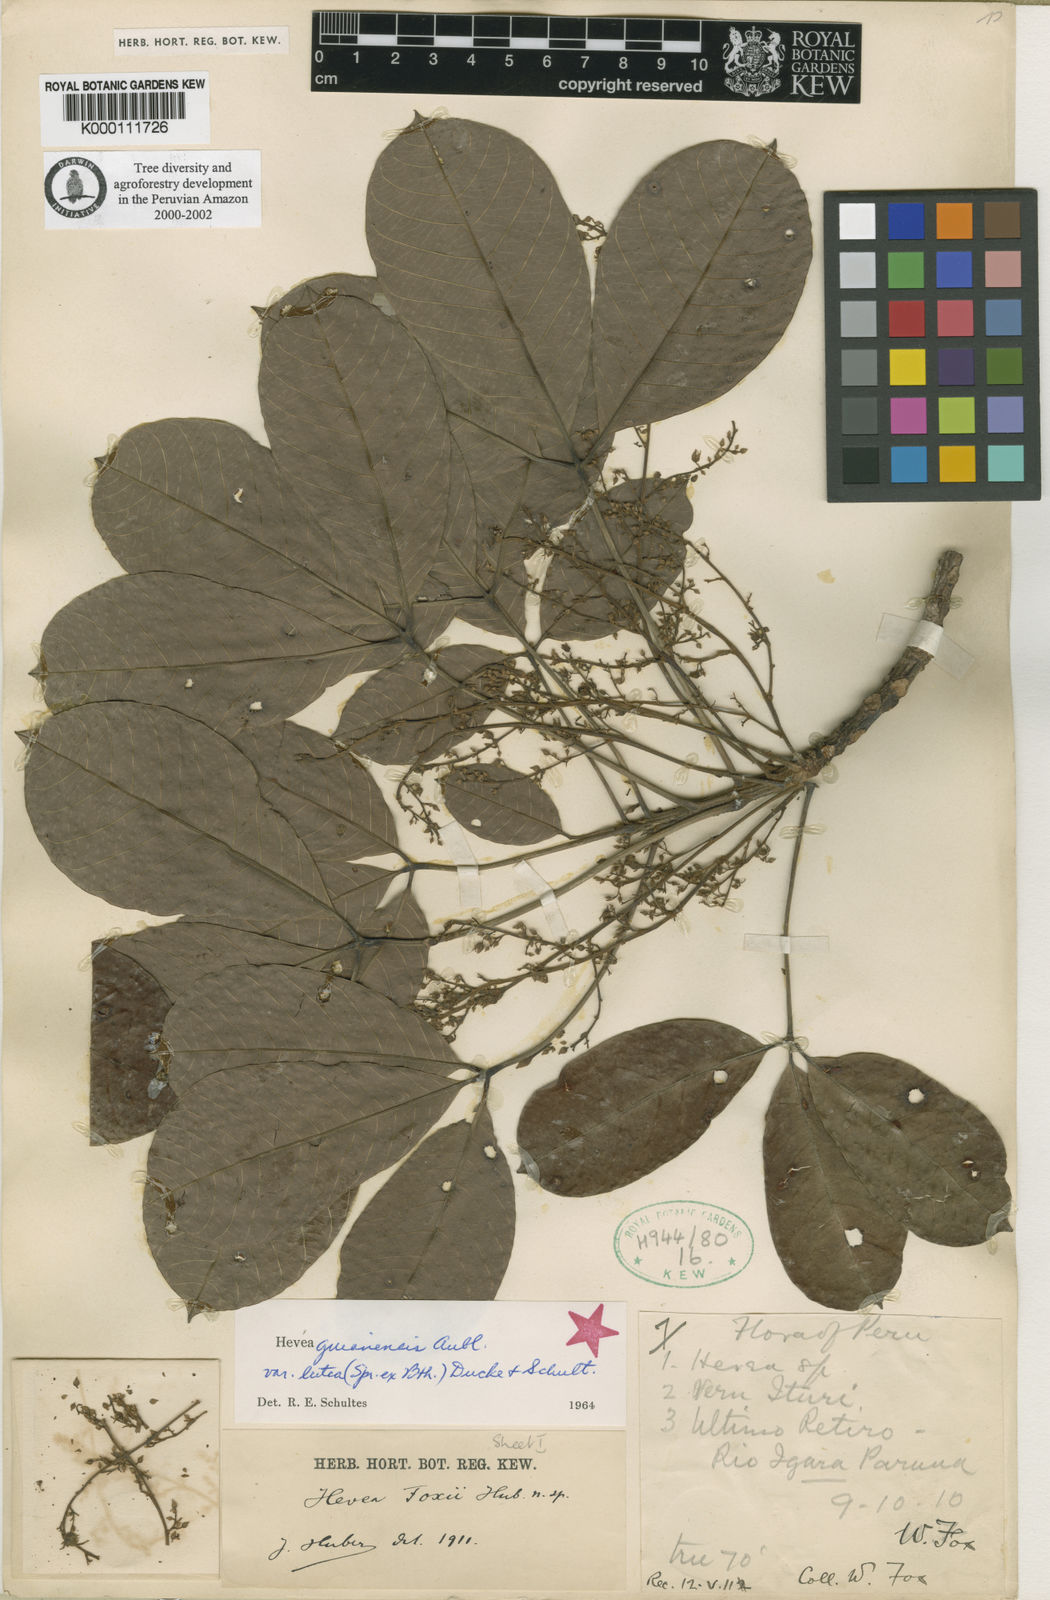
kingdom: Plantae
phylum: Tracheophyta
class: Magnoliopsida
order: Malpighiales
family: Euphorbiaceae
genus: Hevea
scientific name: Hevea guianensis
